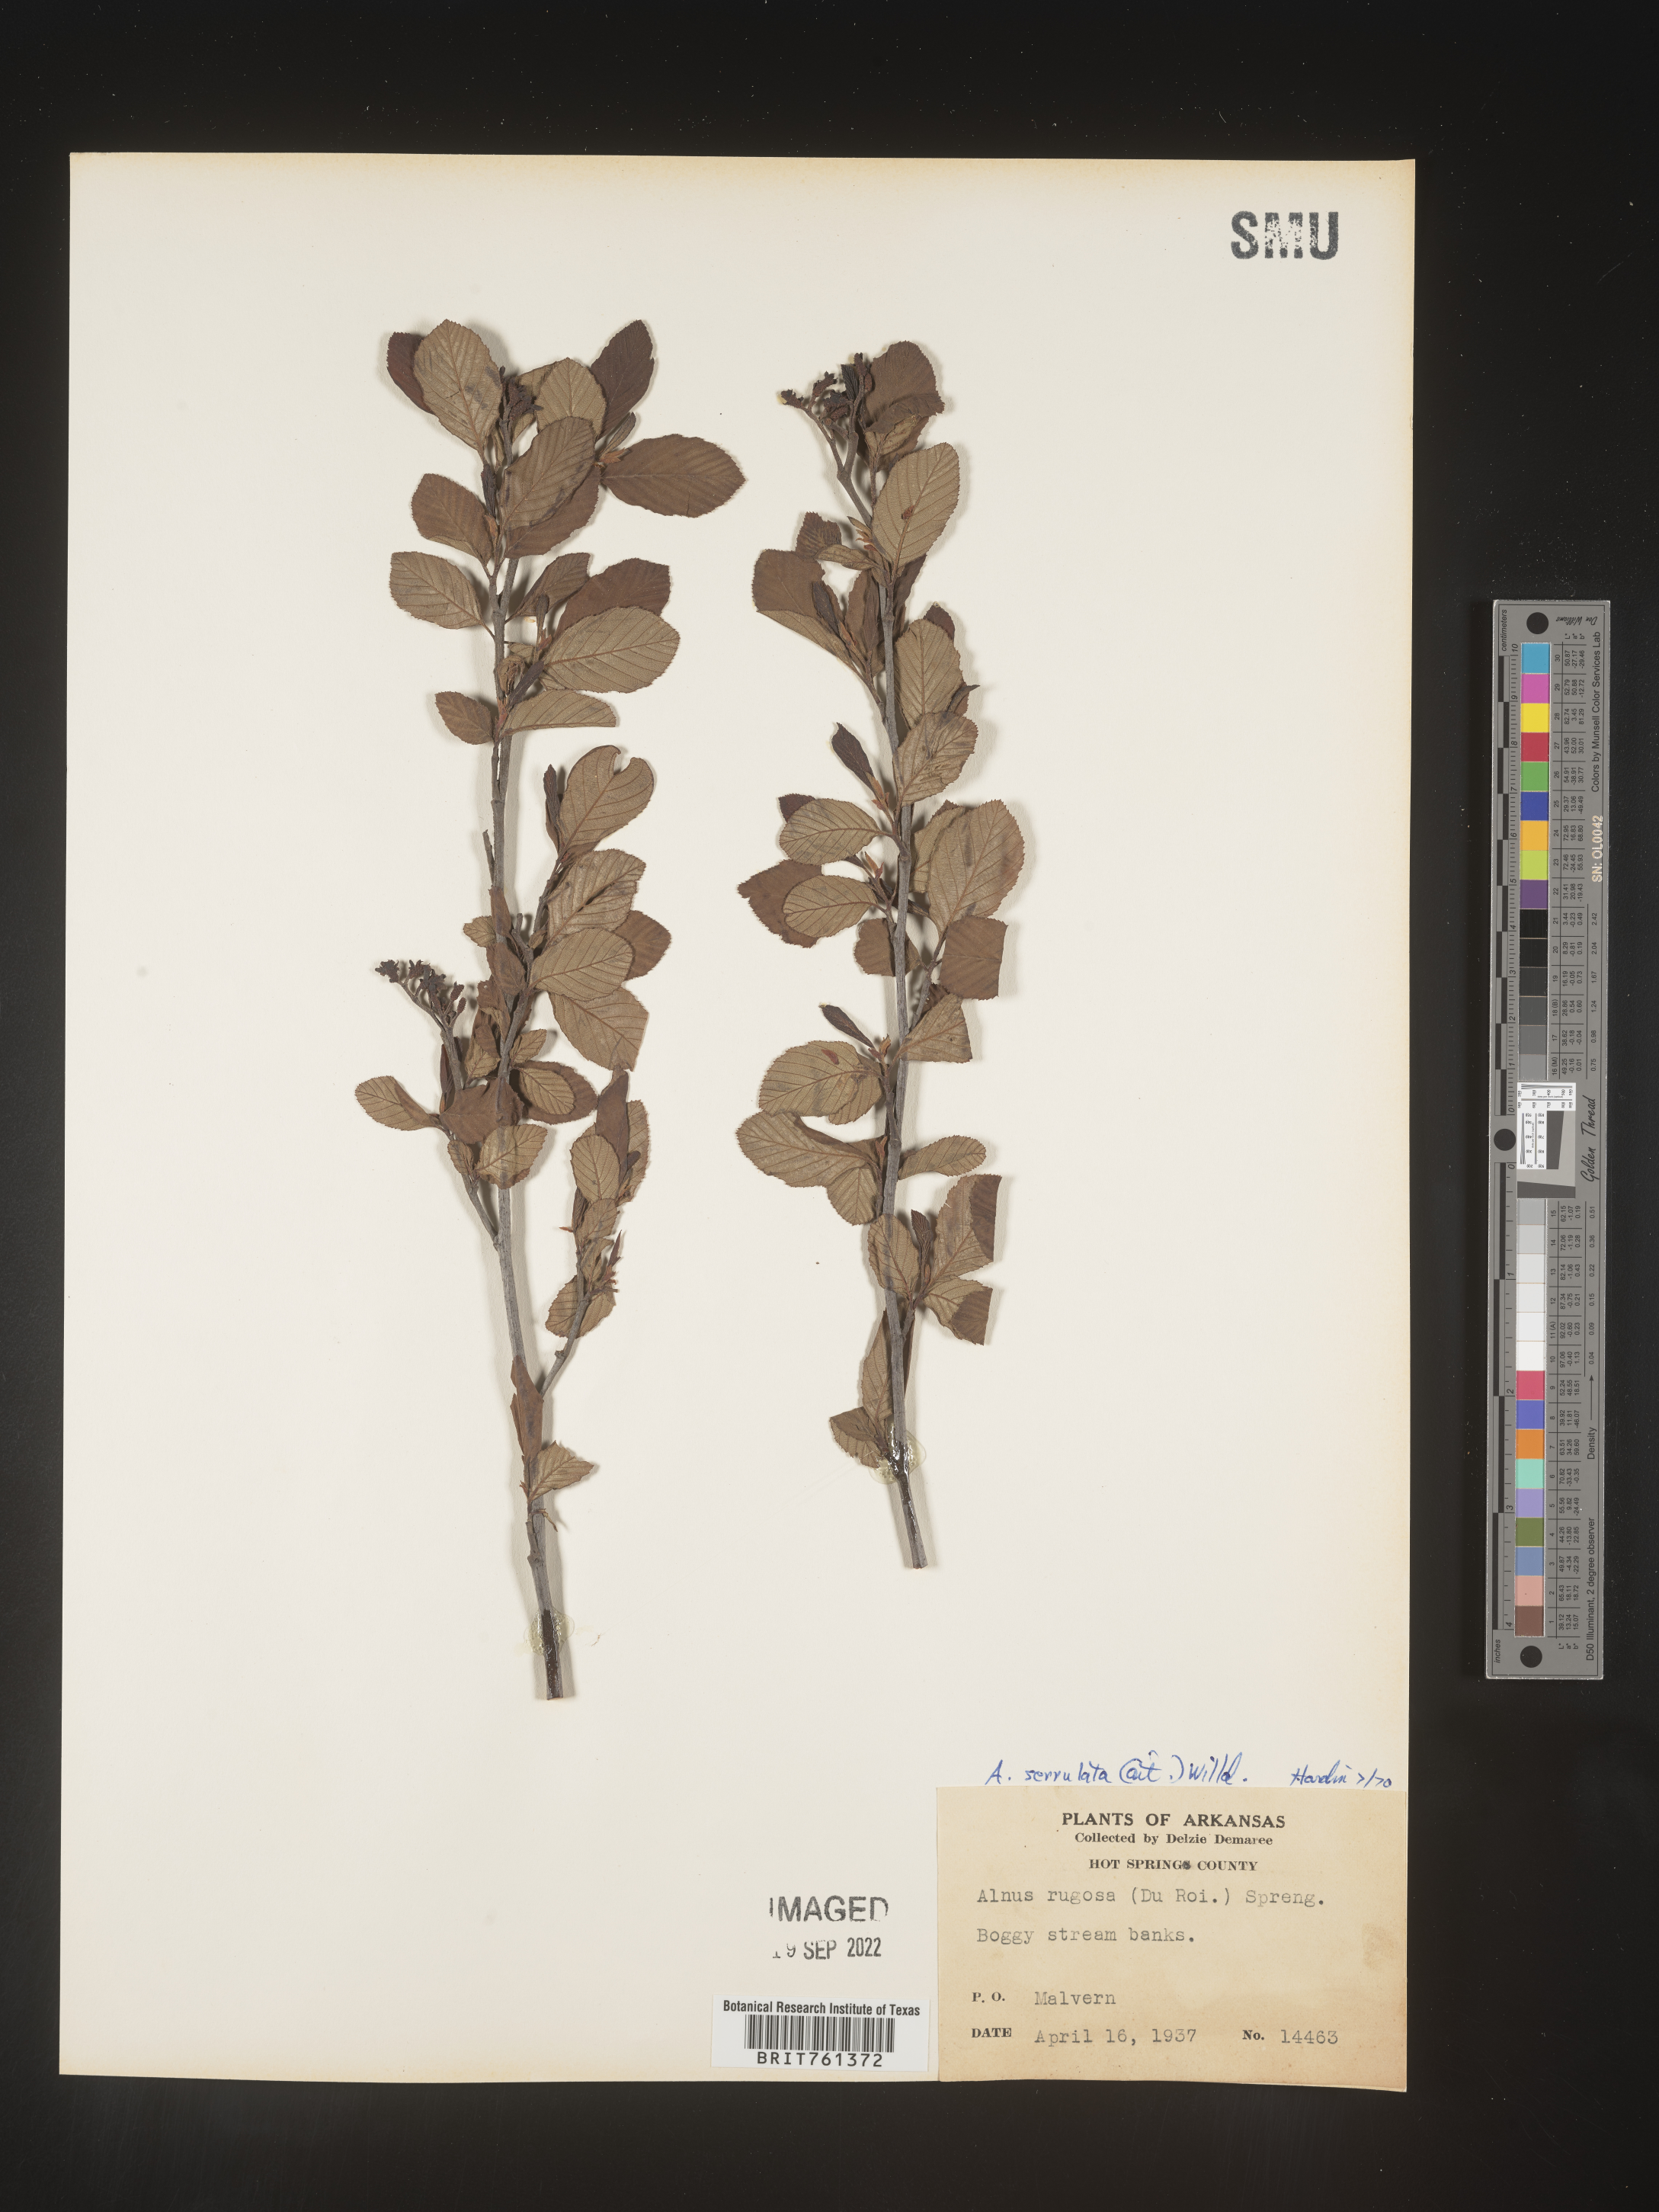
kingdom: Plantae
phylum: Tracheophyta
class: Magnoliopsida
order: Fagales
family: Betulaceae
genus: Alnus
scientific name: Alnus serrulata
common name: Hazel alder
